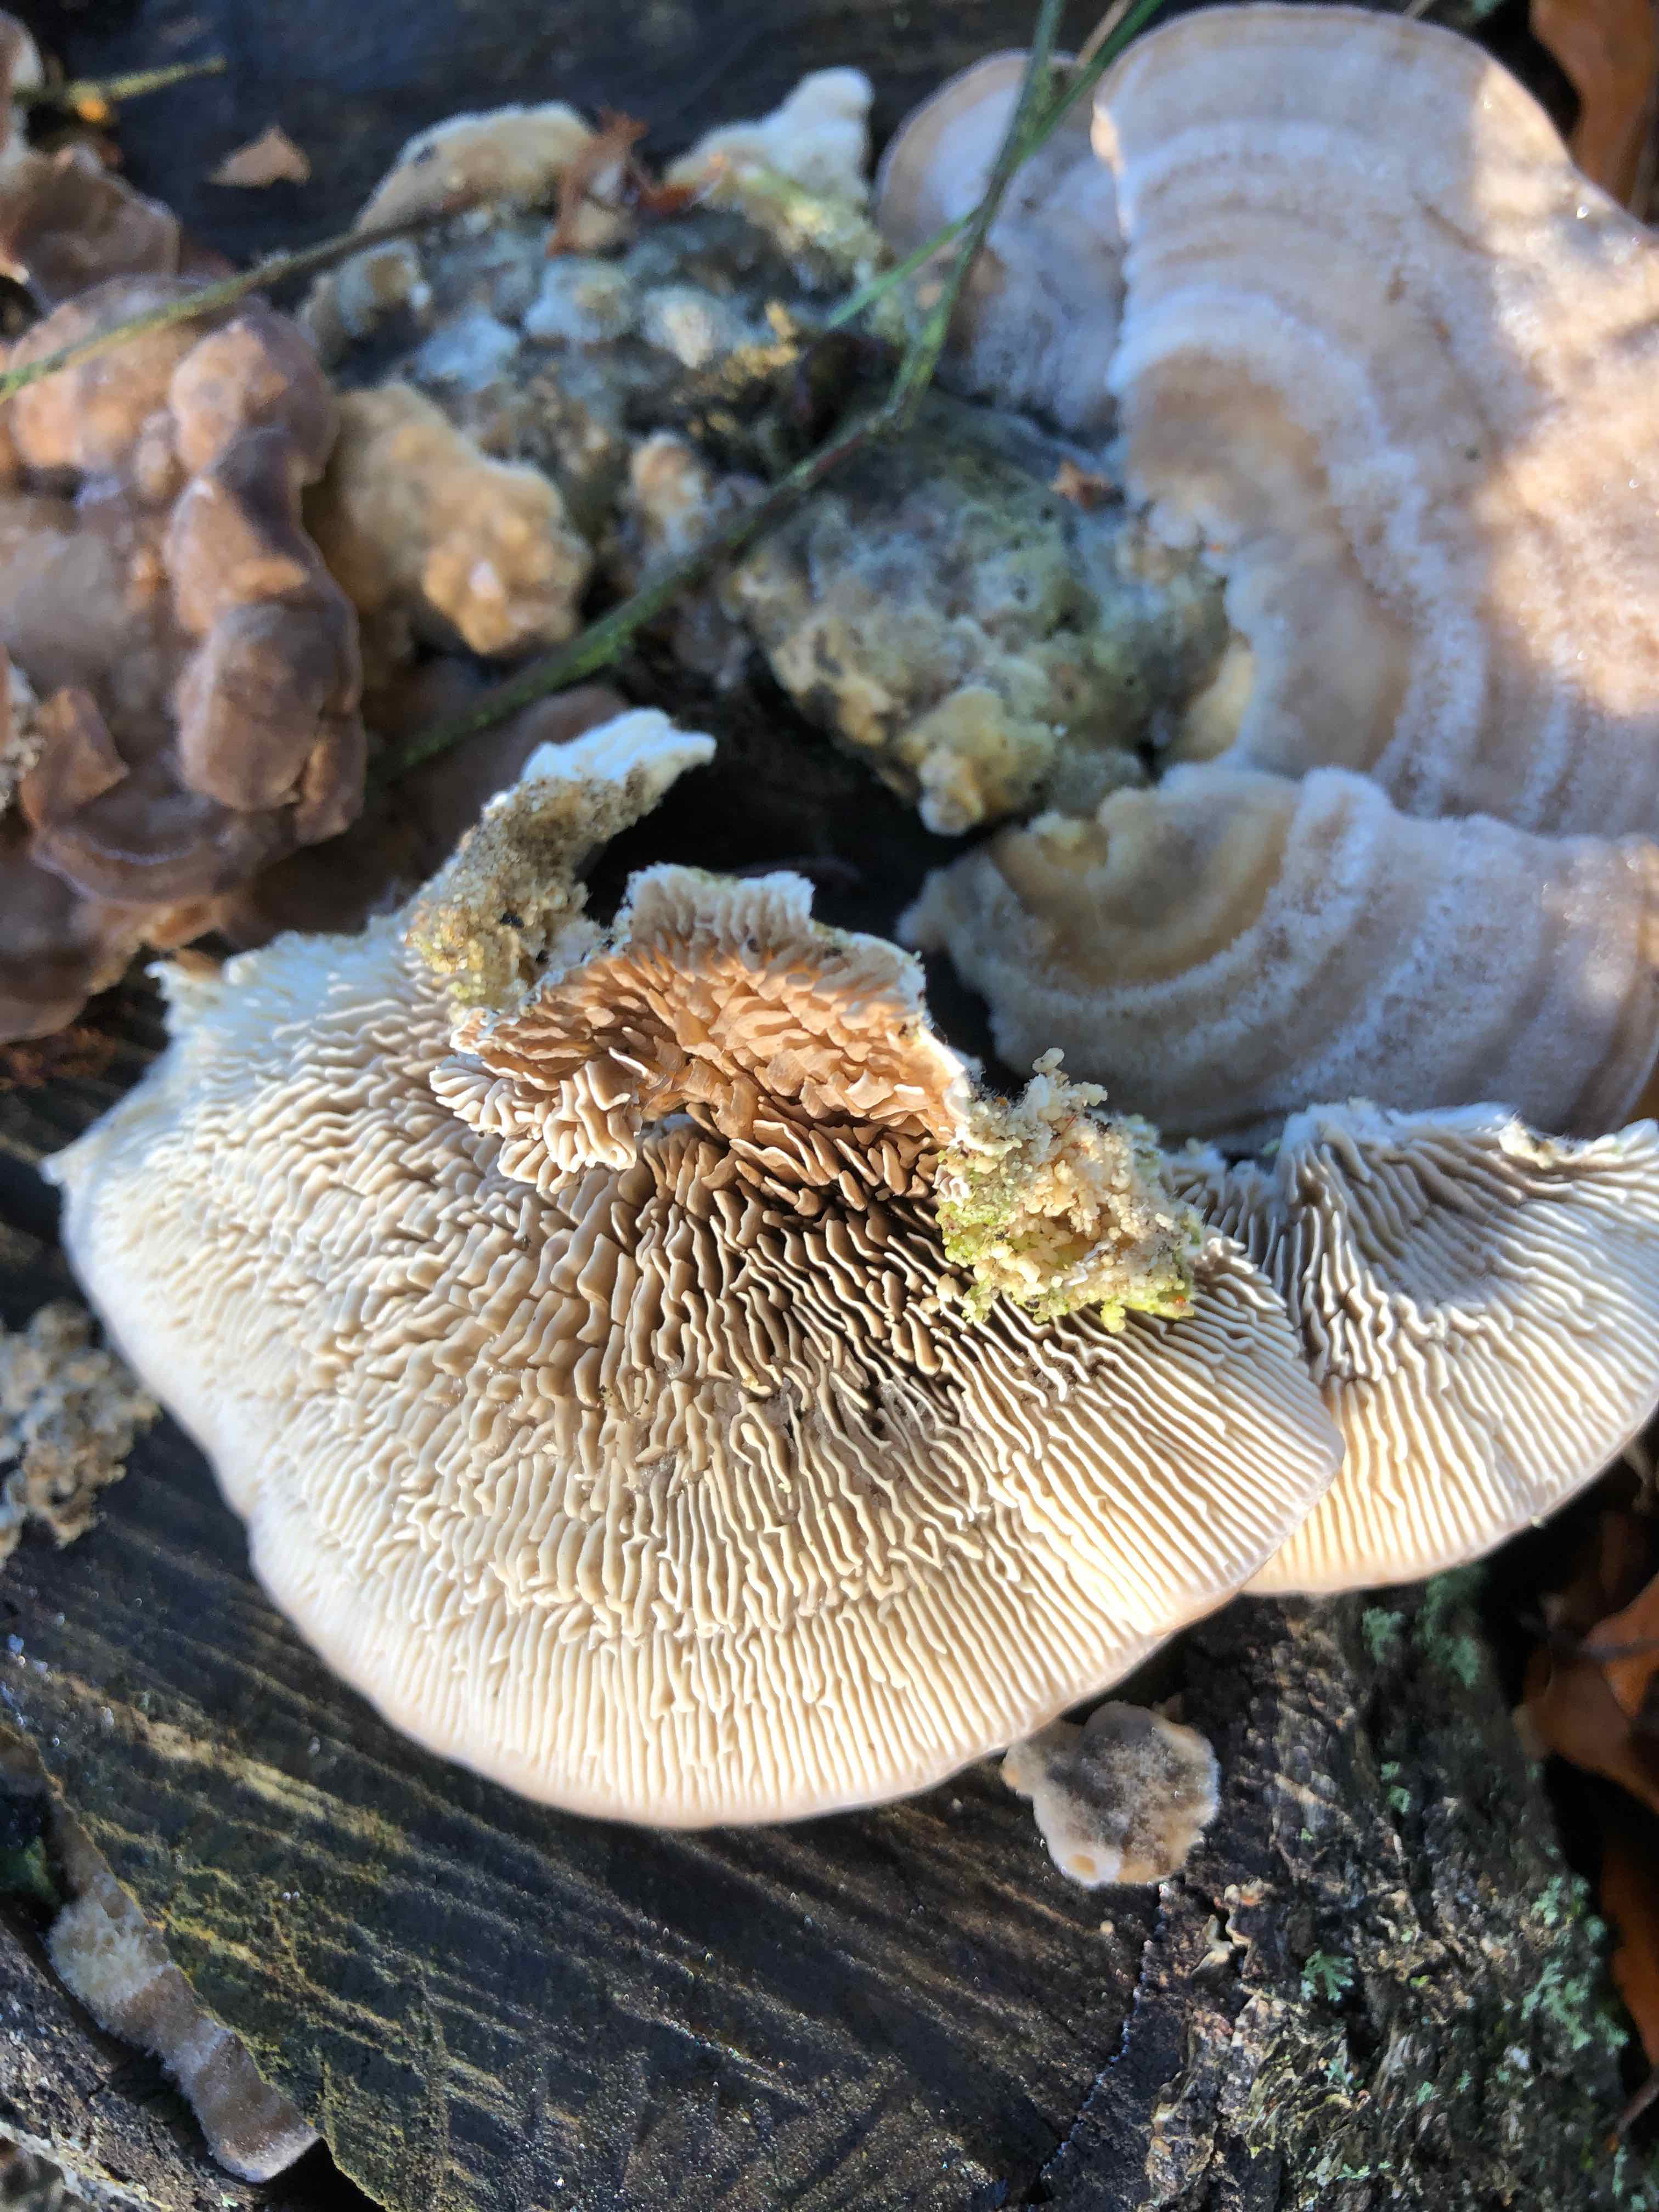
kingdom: Fungi
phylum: Basidiomycota
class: Agaricomycetes
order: Polyporales
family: Polyporaceae
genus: Lenzites
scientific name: Lenzites betulinus
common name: birke-læderporesvamp
